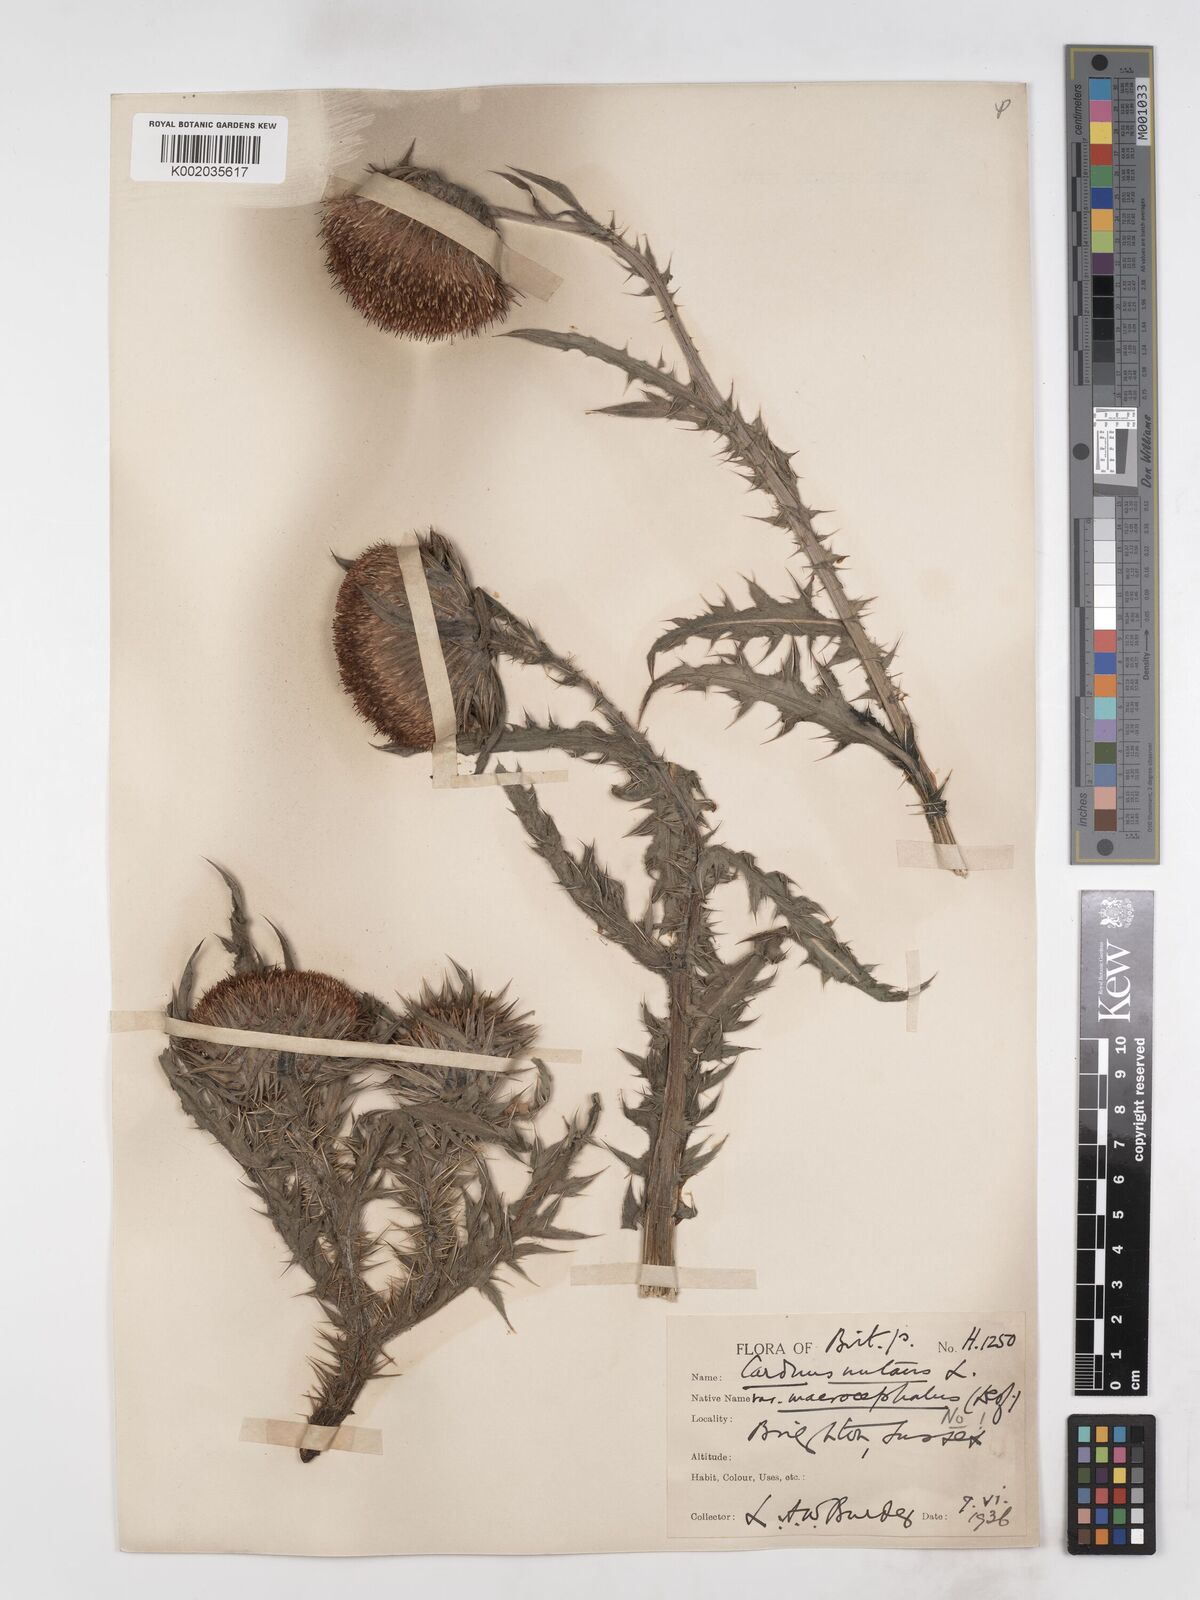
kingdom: Plantae
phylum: Tracheophyta
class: Magnoliopsida
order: Asterales
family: Asteraceae
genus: Carduus
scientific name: Carduus nutans
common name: Musk thistle
